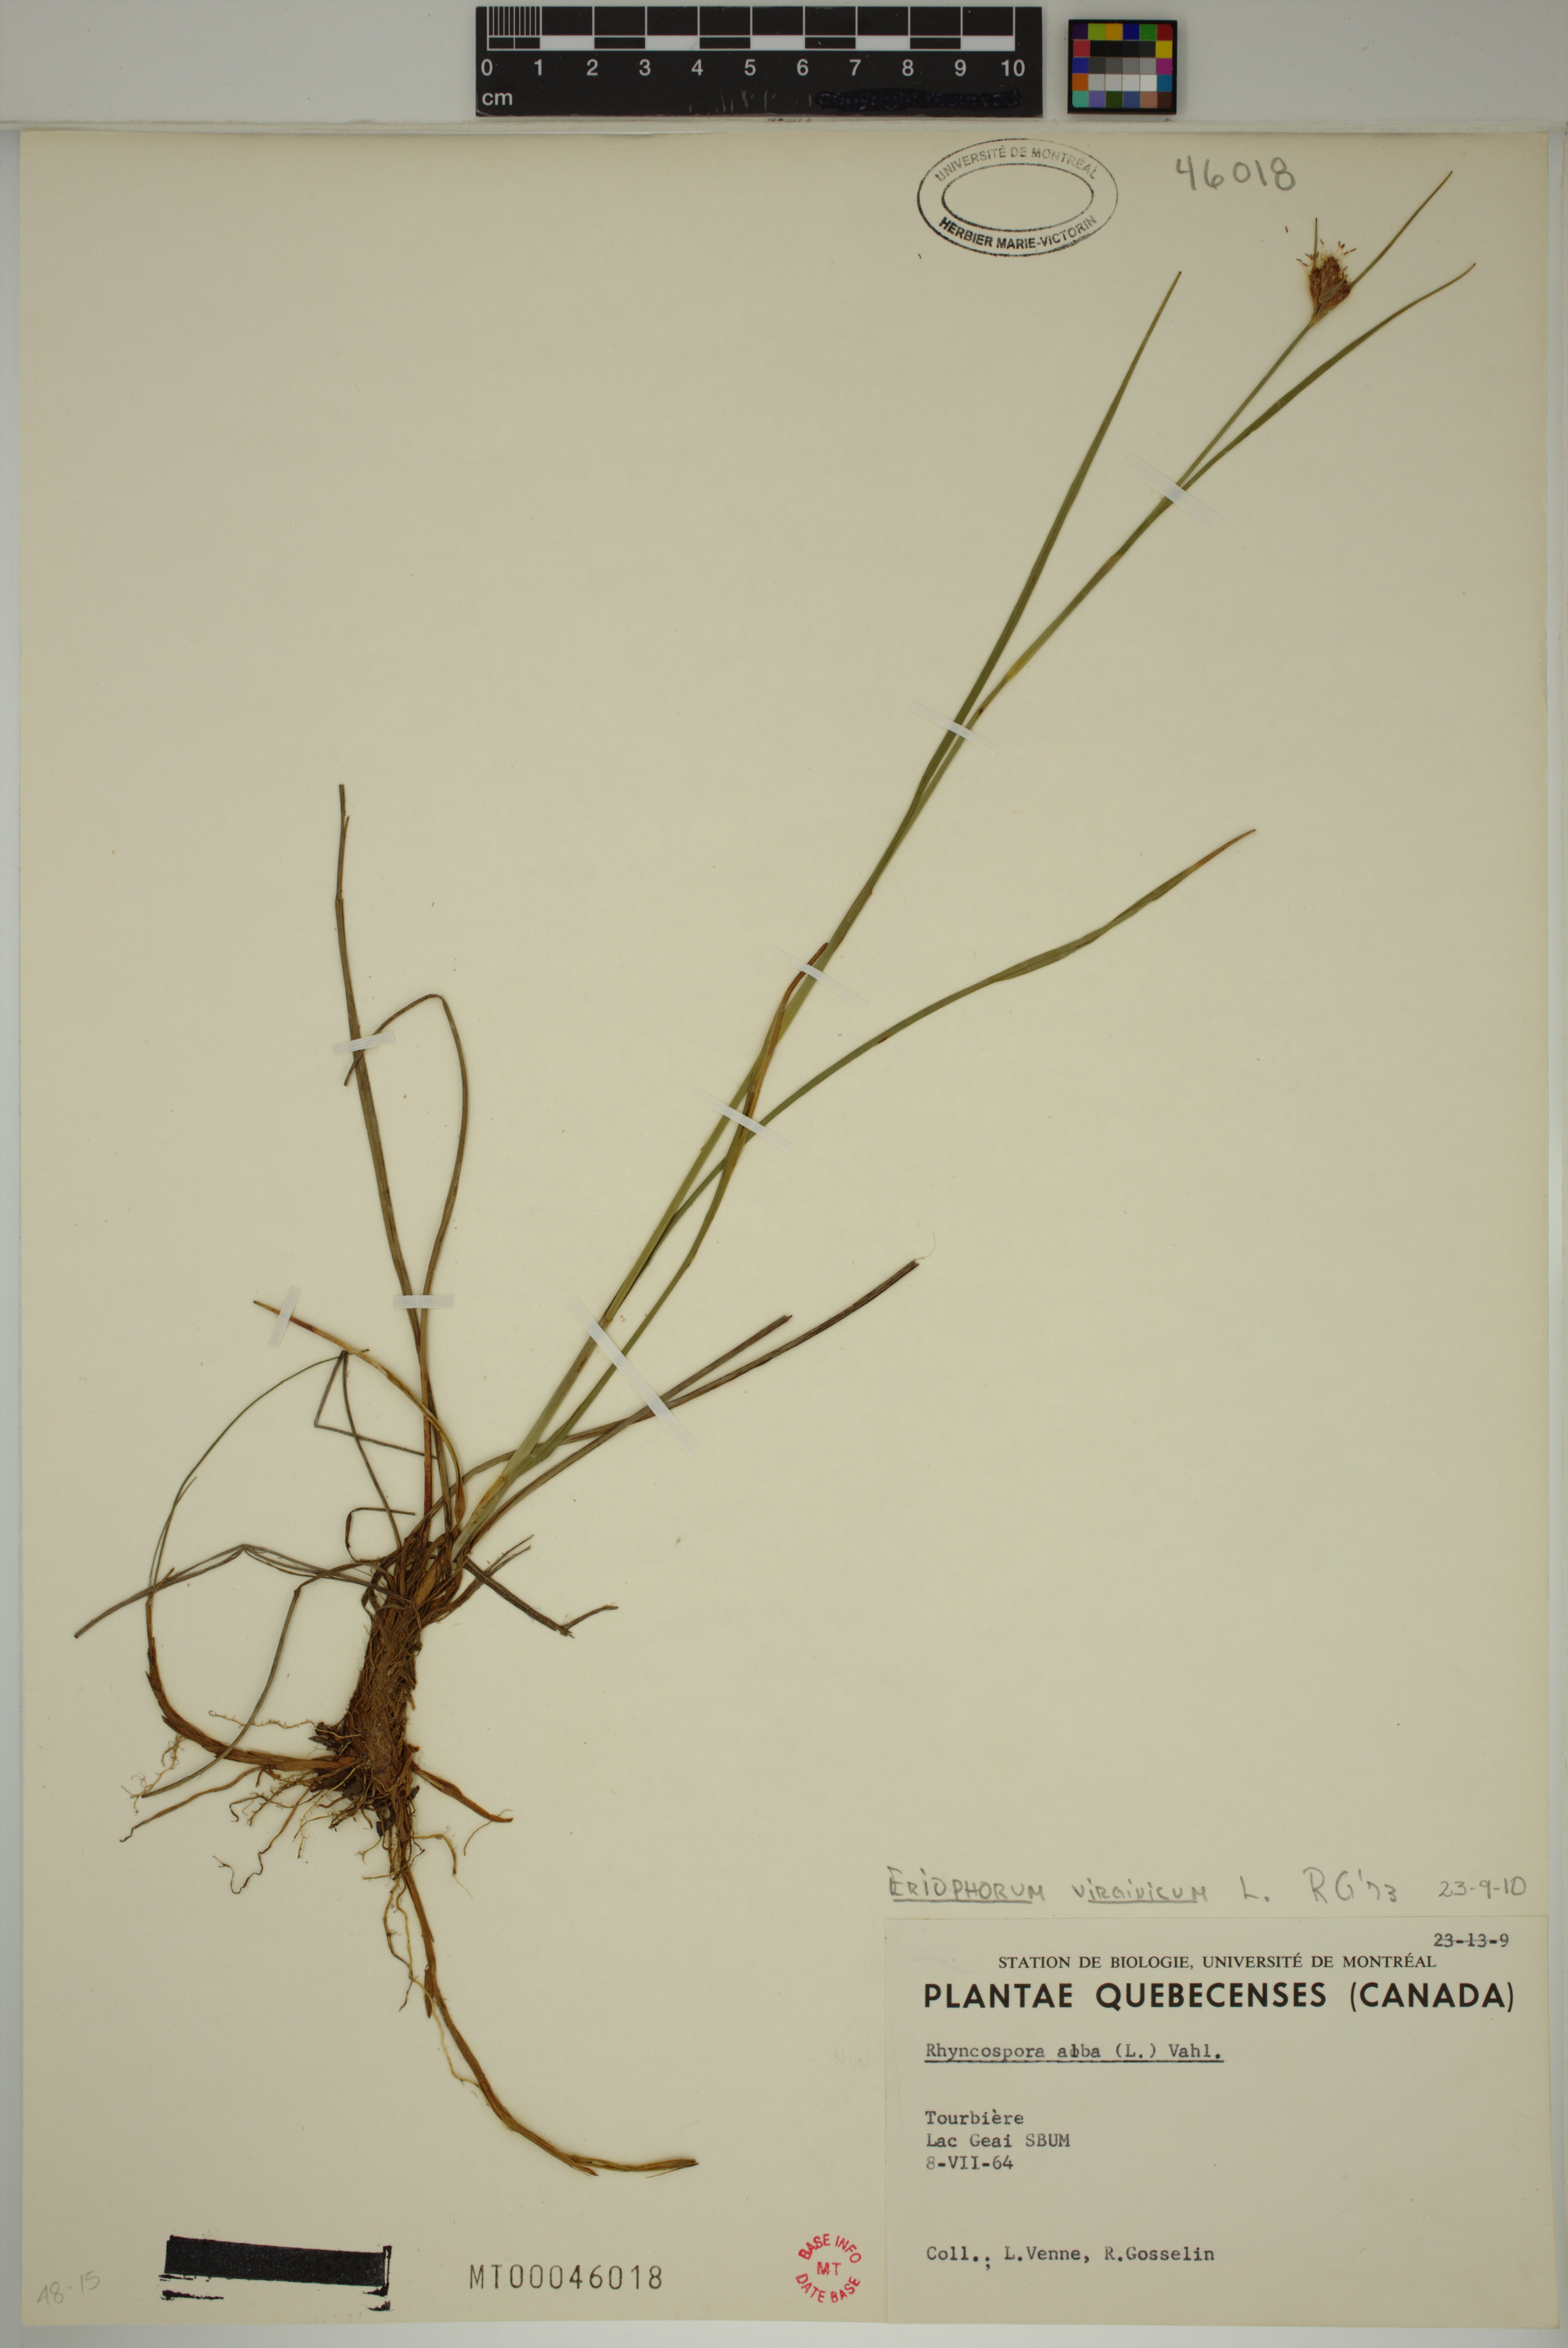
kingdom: Plantae
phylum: Tracheophyta
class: Liliopsida
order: Poales
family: Cyperaceae
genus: Eriophorum
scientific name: Eriophorum virginicum
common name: Tawny cottongrass
